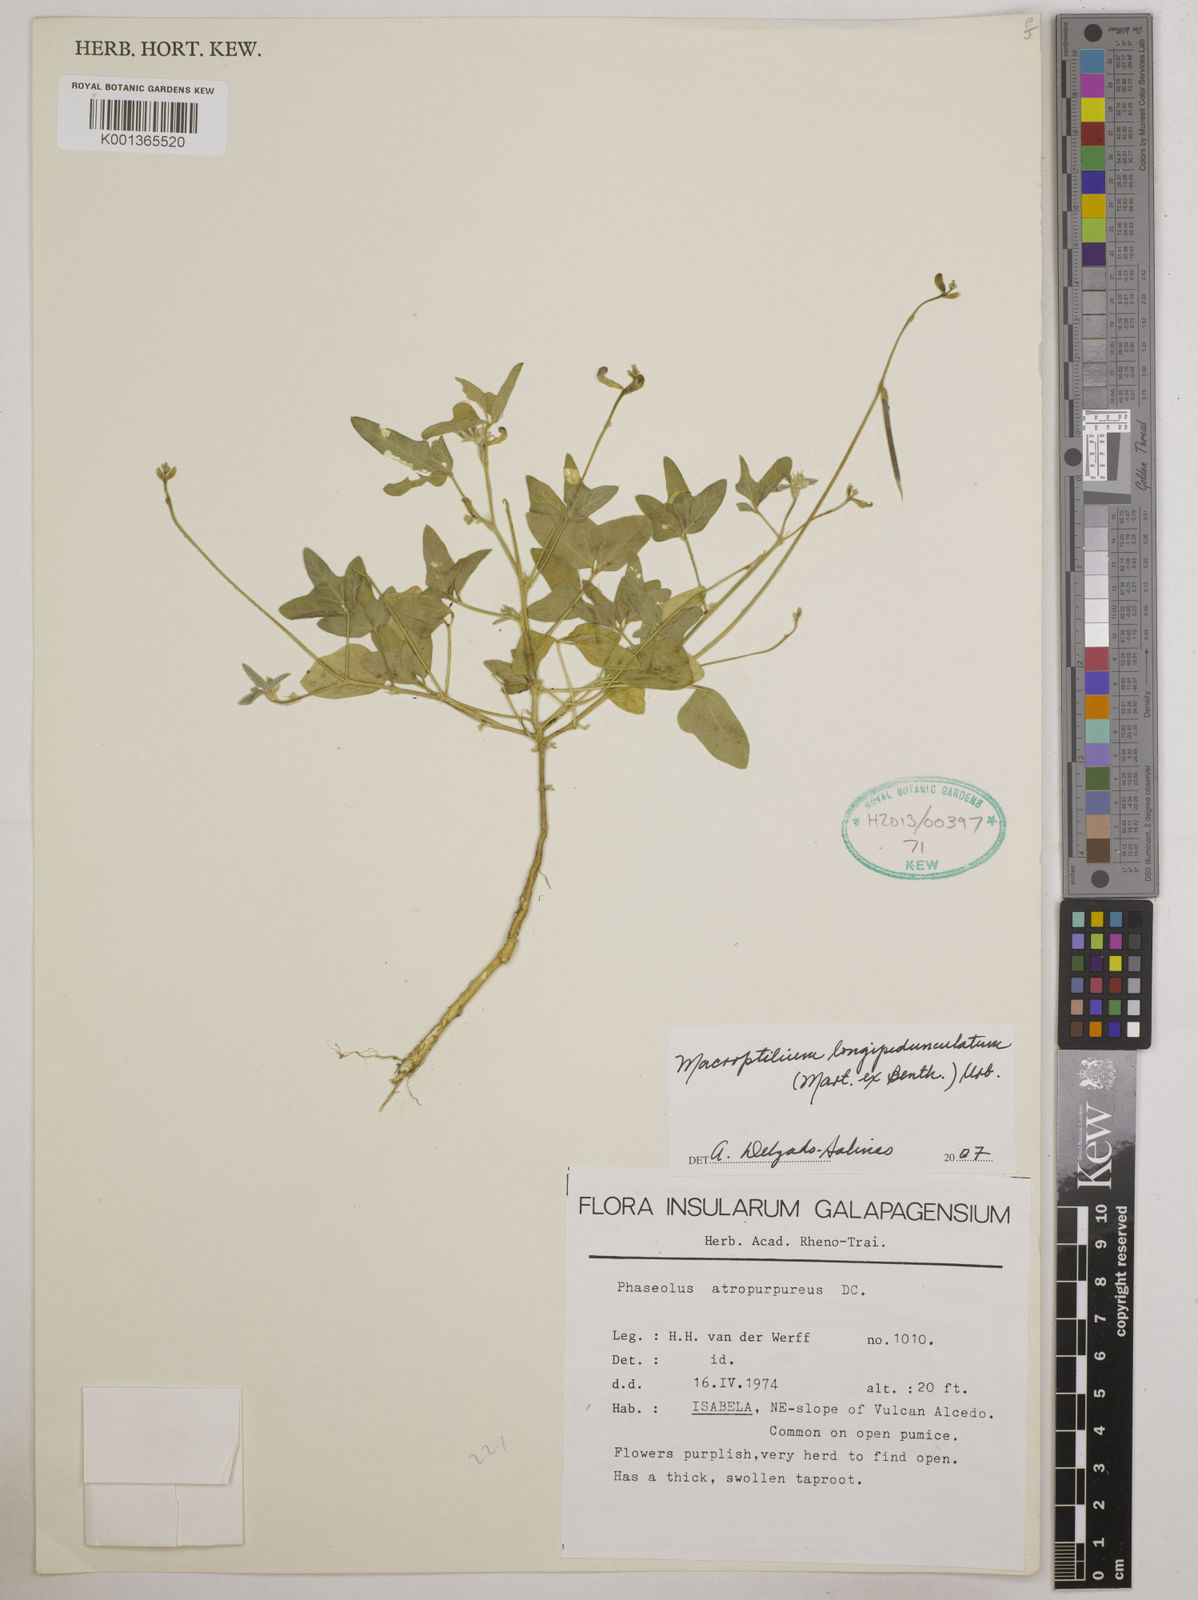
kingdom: Plantae
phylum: Tracheophyta
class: Magnoliopsida
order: Fabales
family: Fabaceae
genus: Macroptilium
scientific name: Macroptilium longepedunculatum
